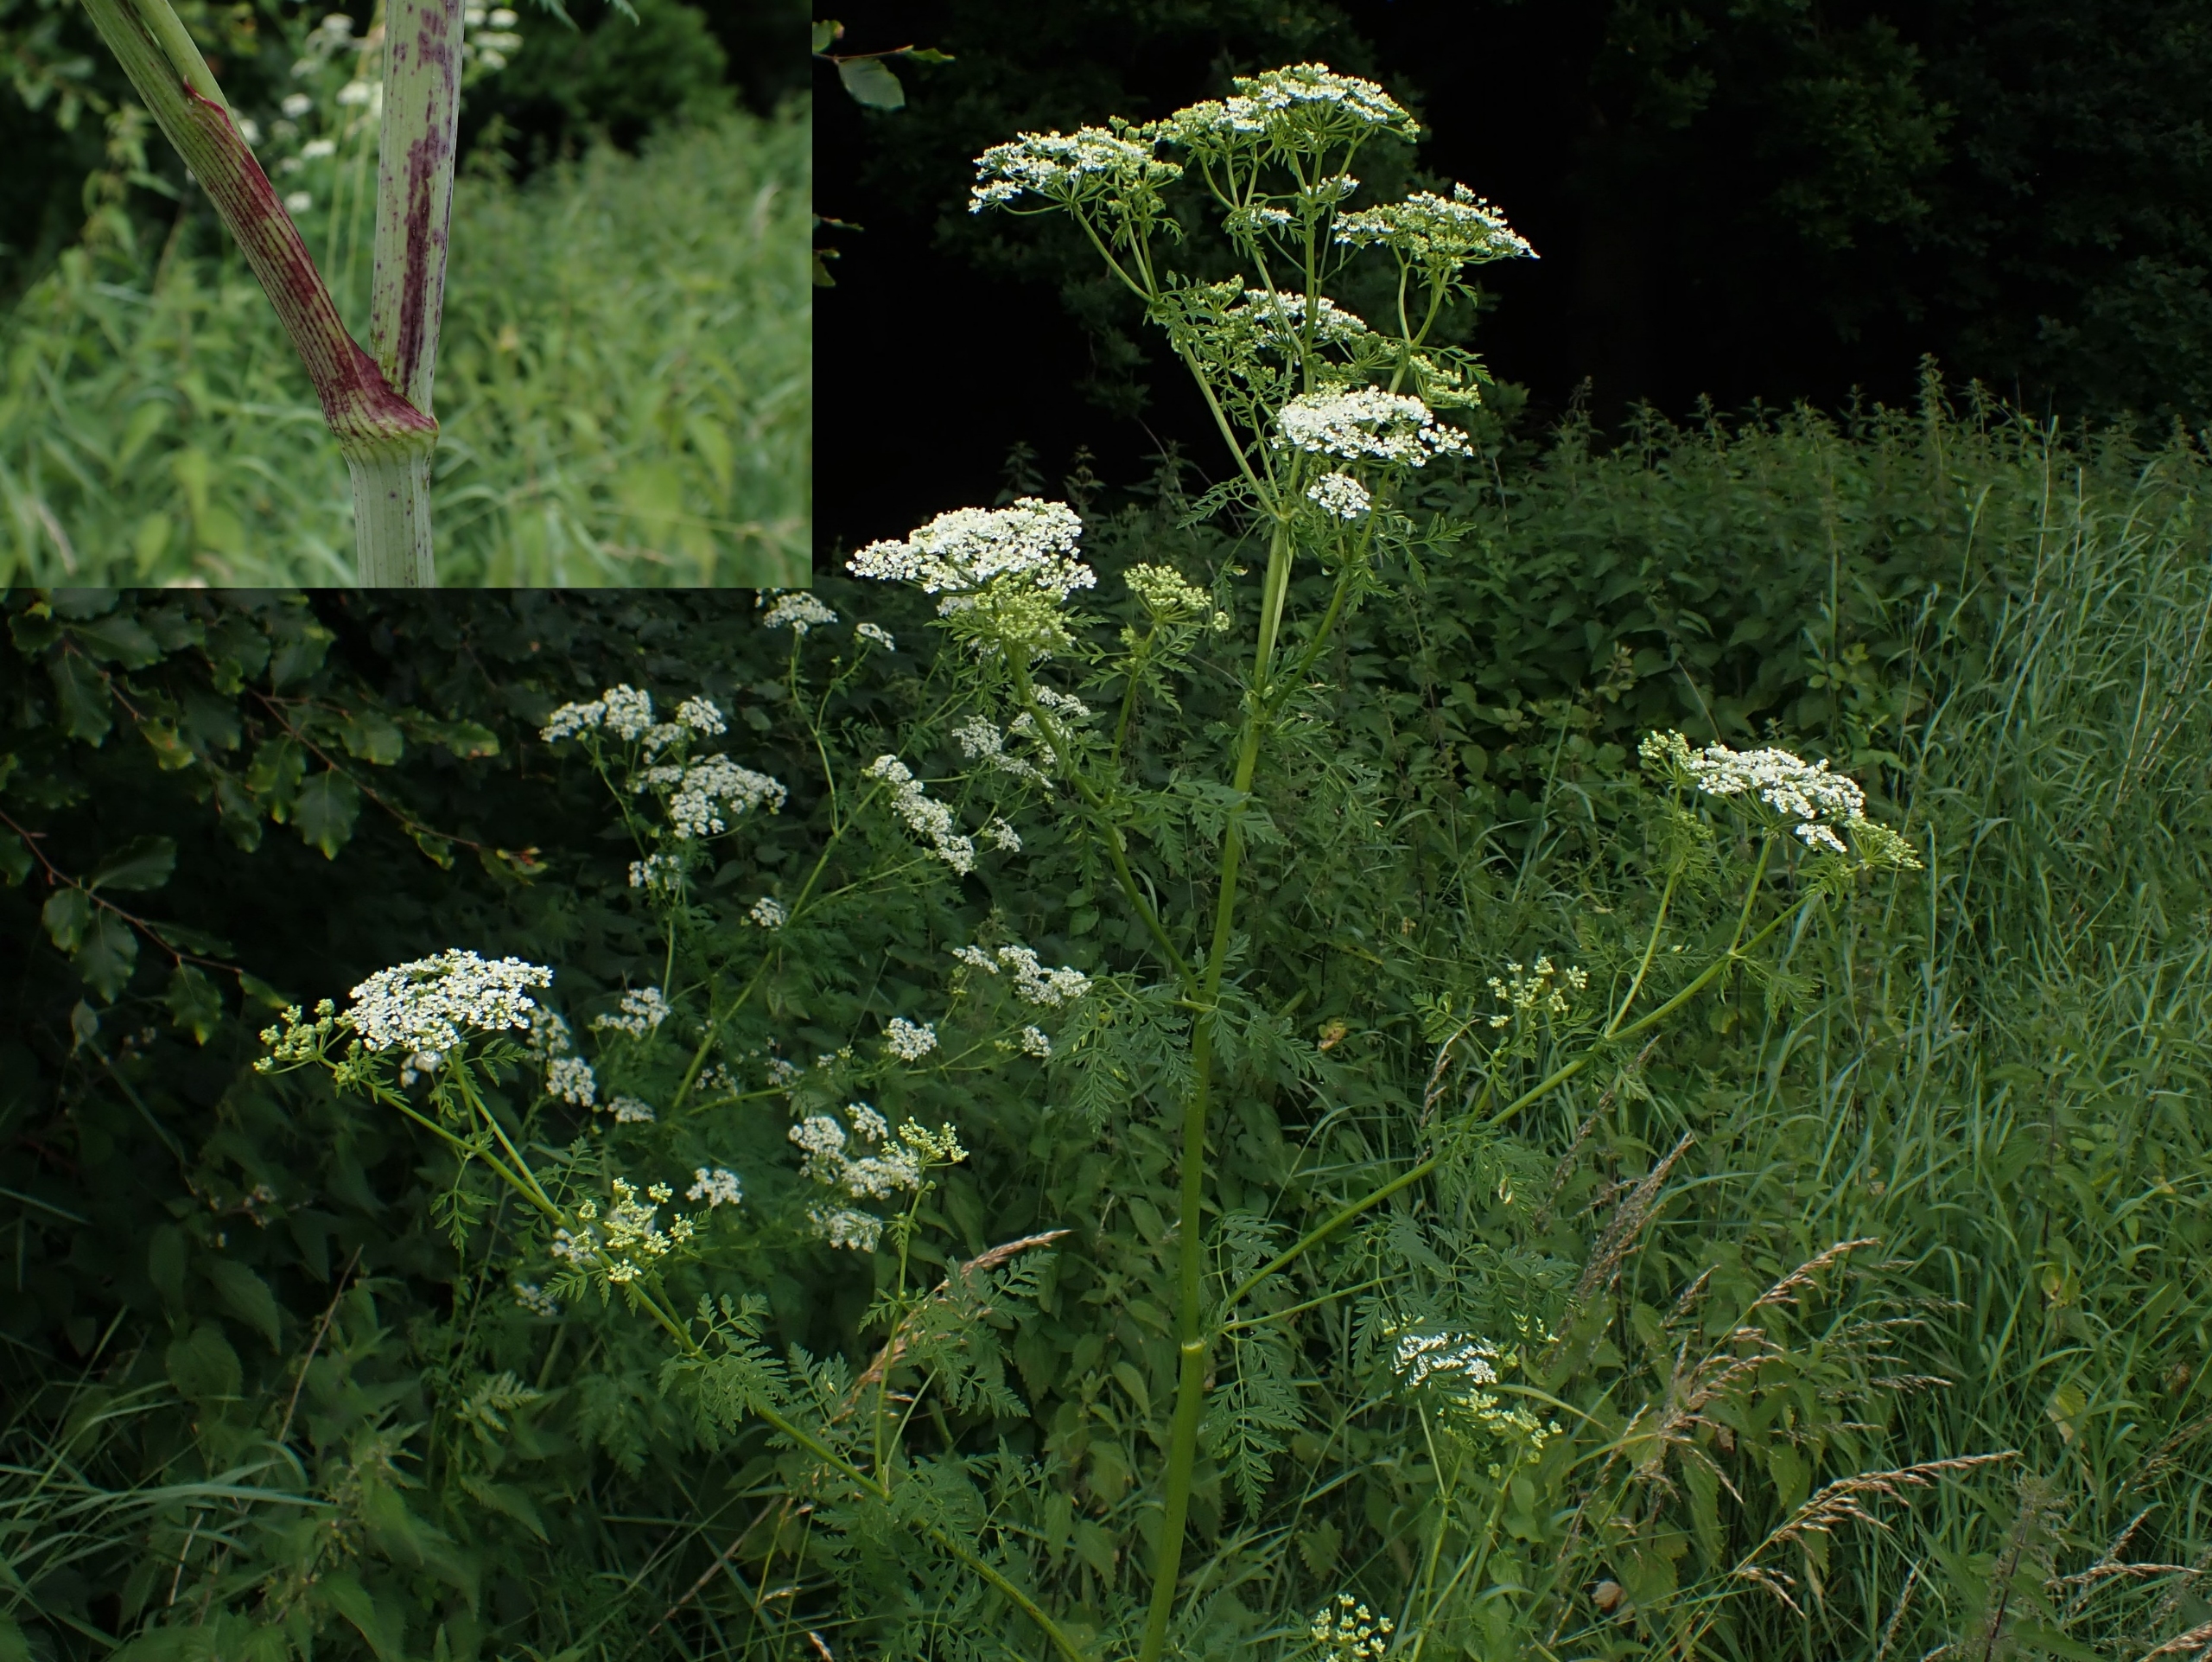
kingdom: Plantae
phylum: Tracheophyta
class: Magnoliopsida
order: Apiales
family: Apiaceae
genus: Conium
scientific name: Conium maculatum
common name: Skarntyde
